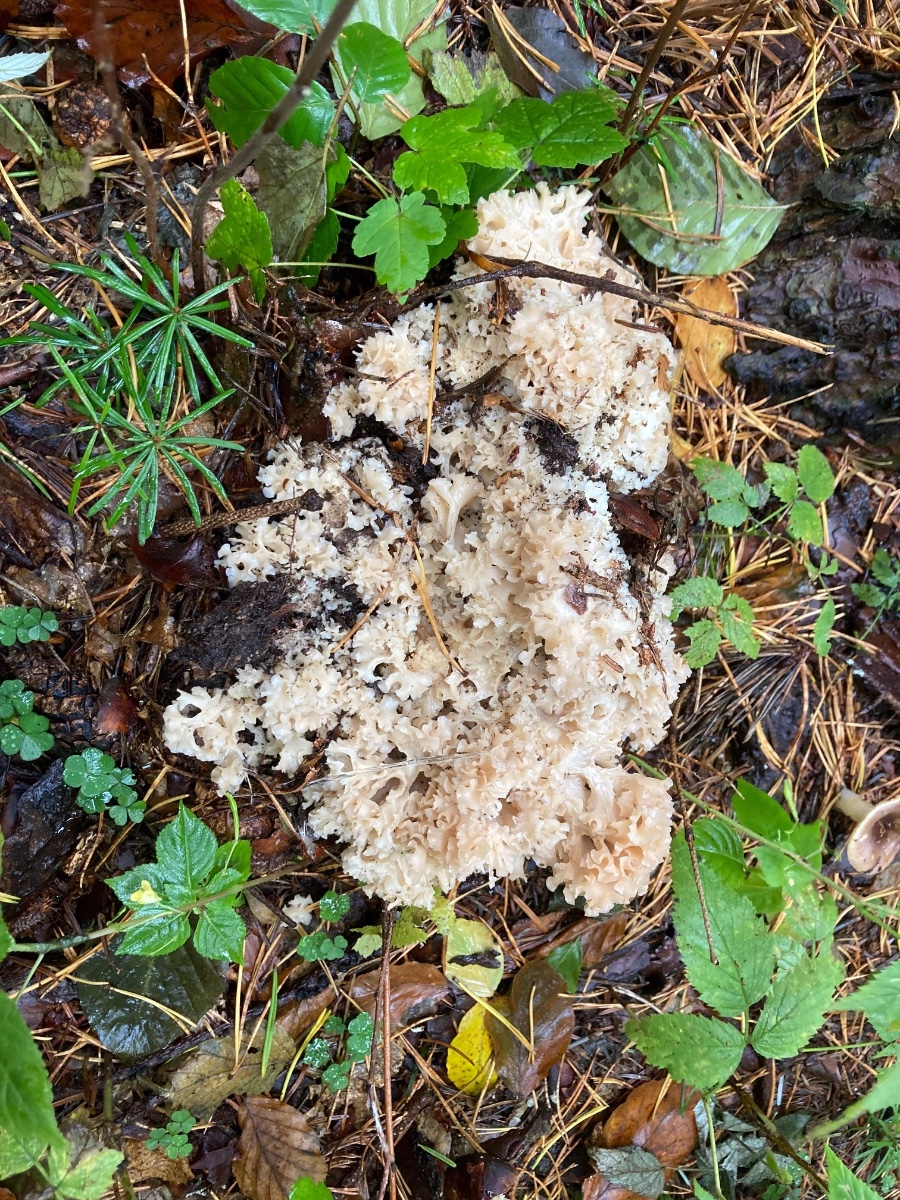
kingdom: Fungi
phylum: Basidiomycota
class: Agaricomycetes
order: Polyporales
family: Sparassidaceae
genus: Sparassis
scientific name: Sparassis crispa
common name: kruset blomkålssvamp
